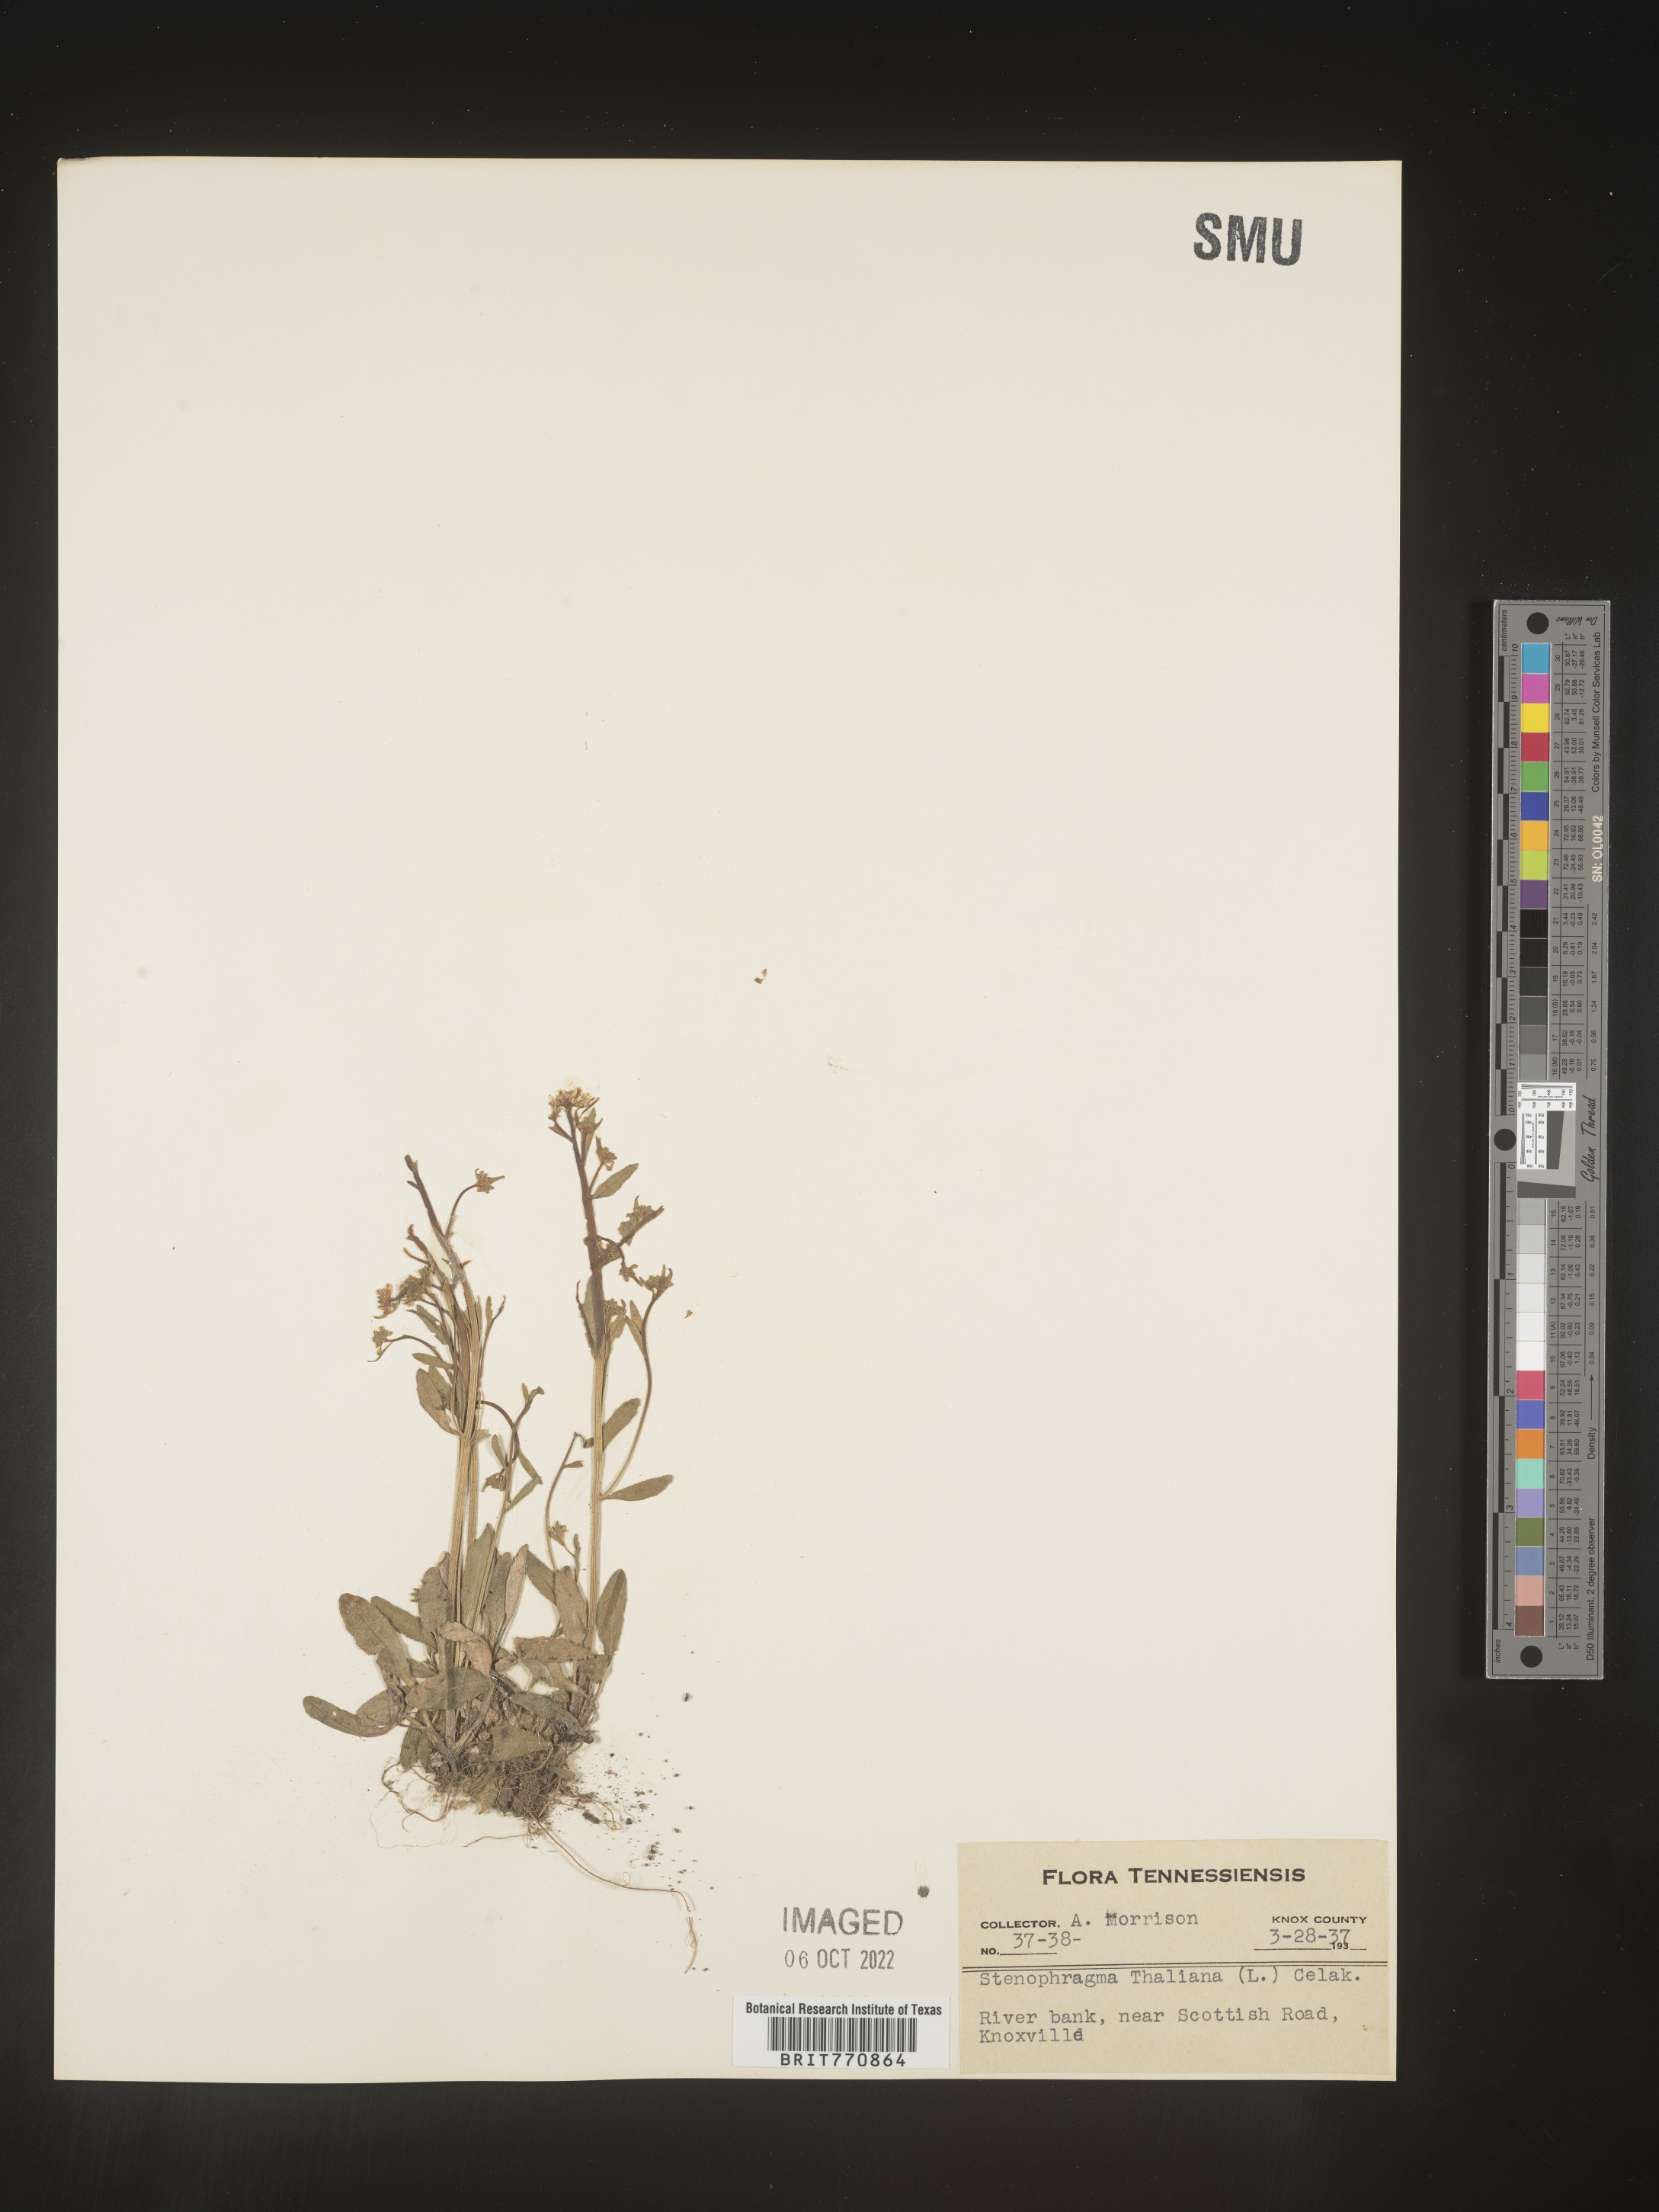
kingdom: Plantae
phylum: Tracheophyta
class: Magnoliopsida
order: Brassicales
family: Brassicaceae
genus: Arabidopsis
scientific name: Arabidopsis thaliana
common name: Thale cress
